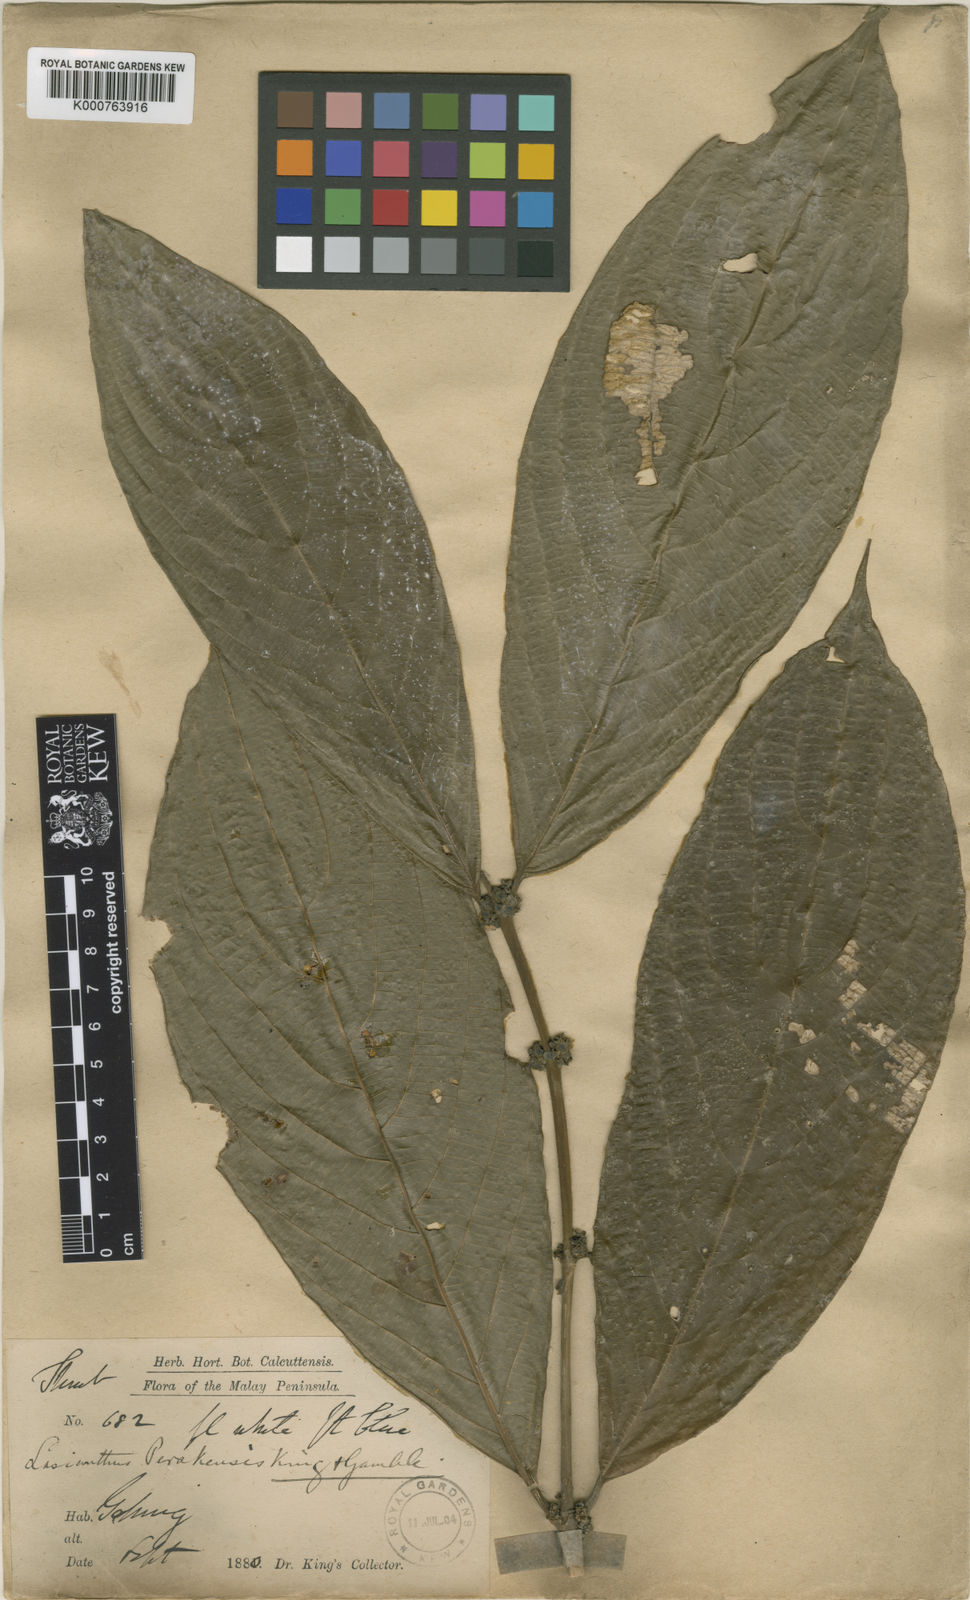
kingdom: Plantae
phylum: Tracheophyta
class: Magnoliopsida
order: Gentianales
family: Rubiaceae
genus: Lasianthus
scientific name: Lasianthus perakensis
